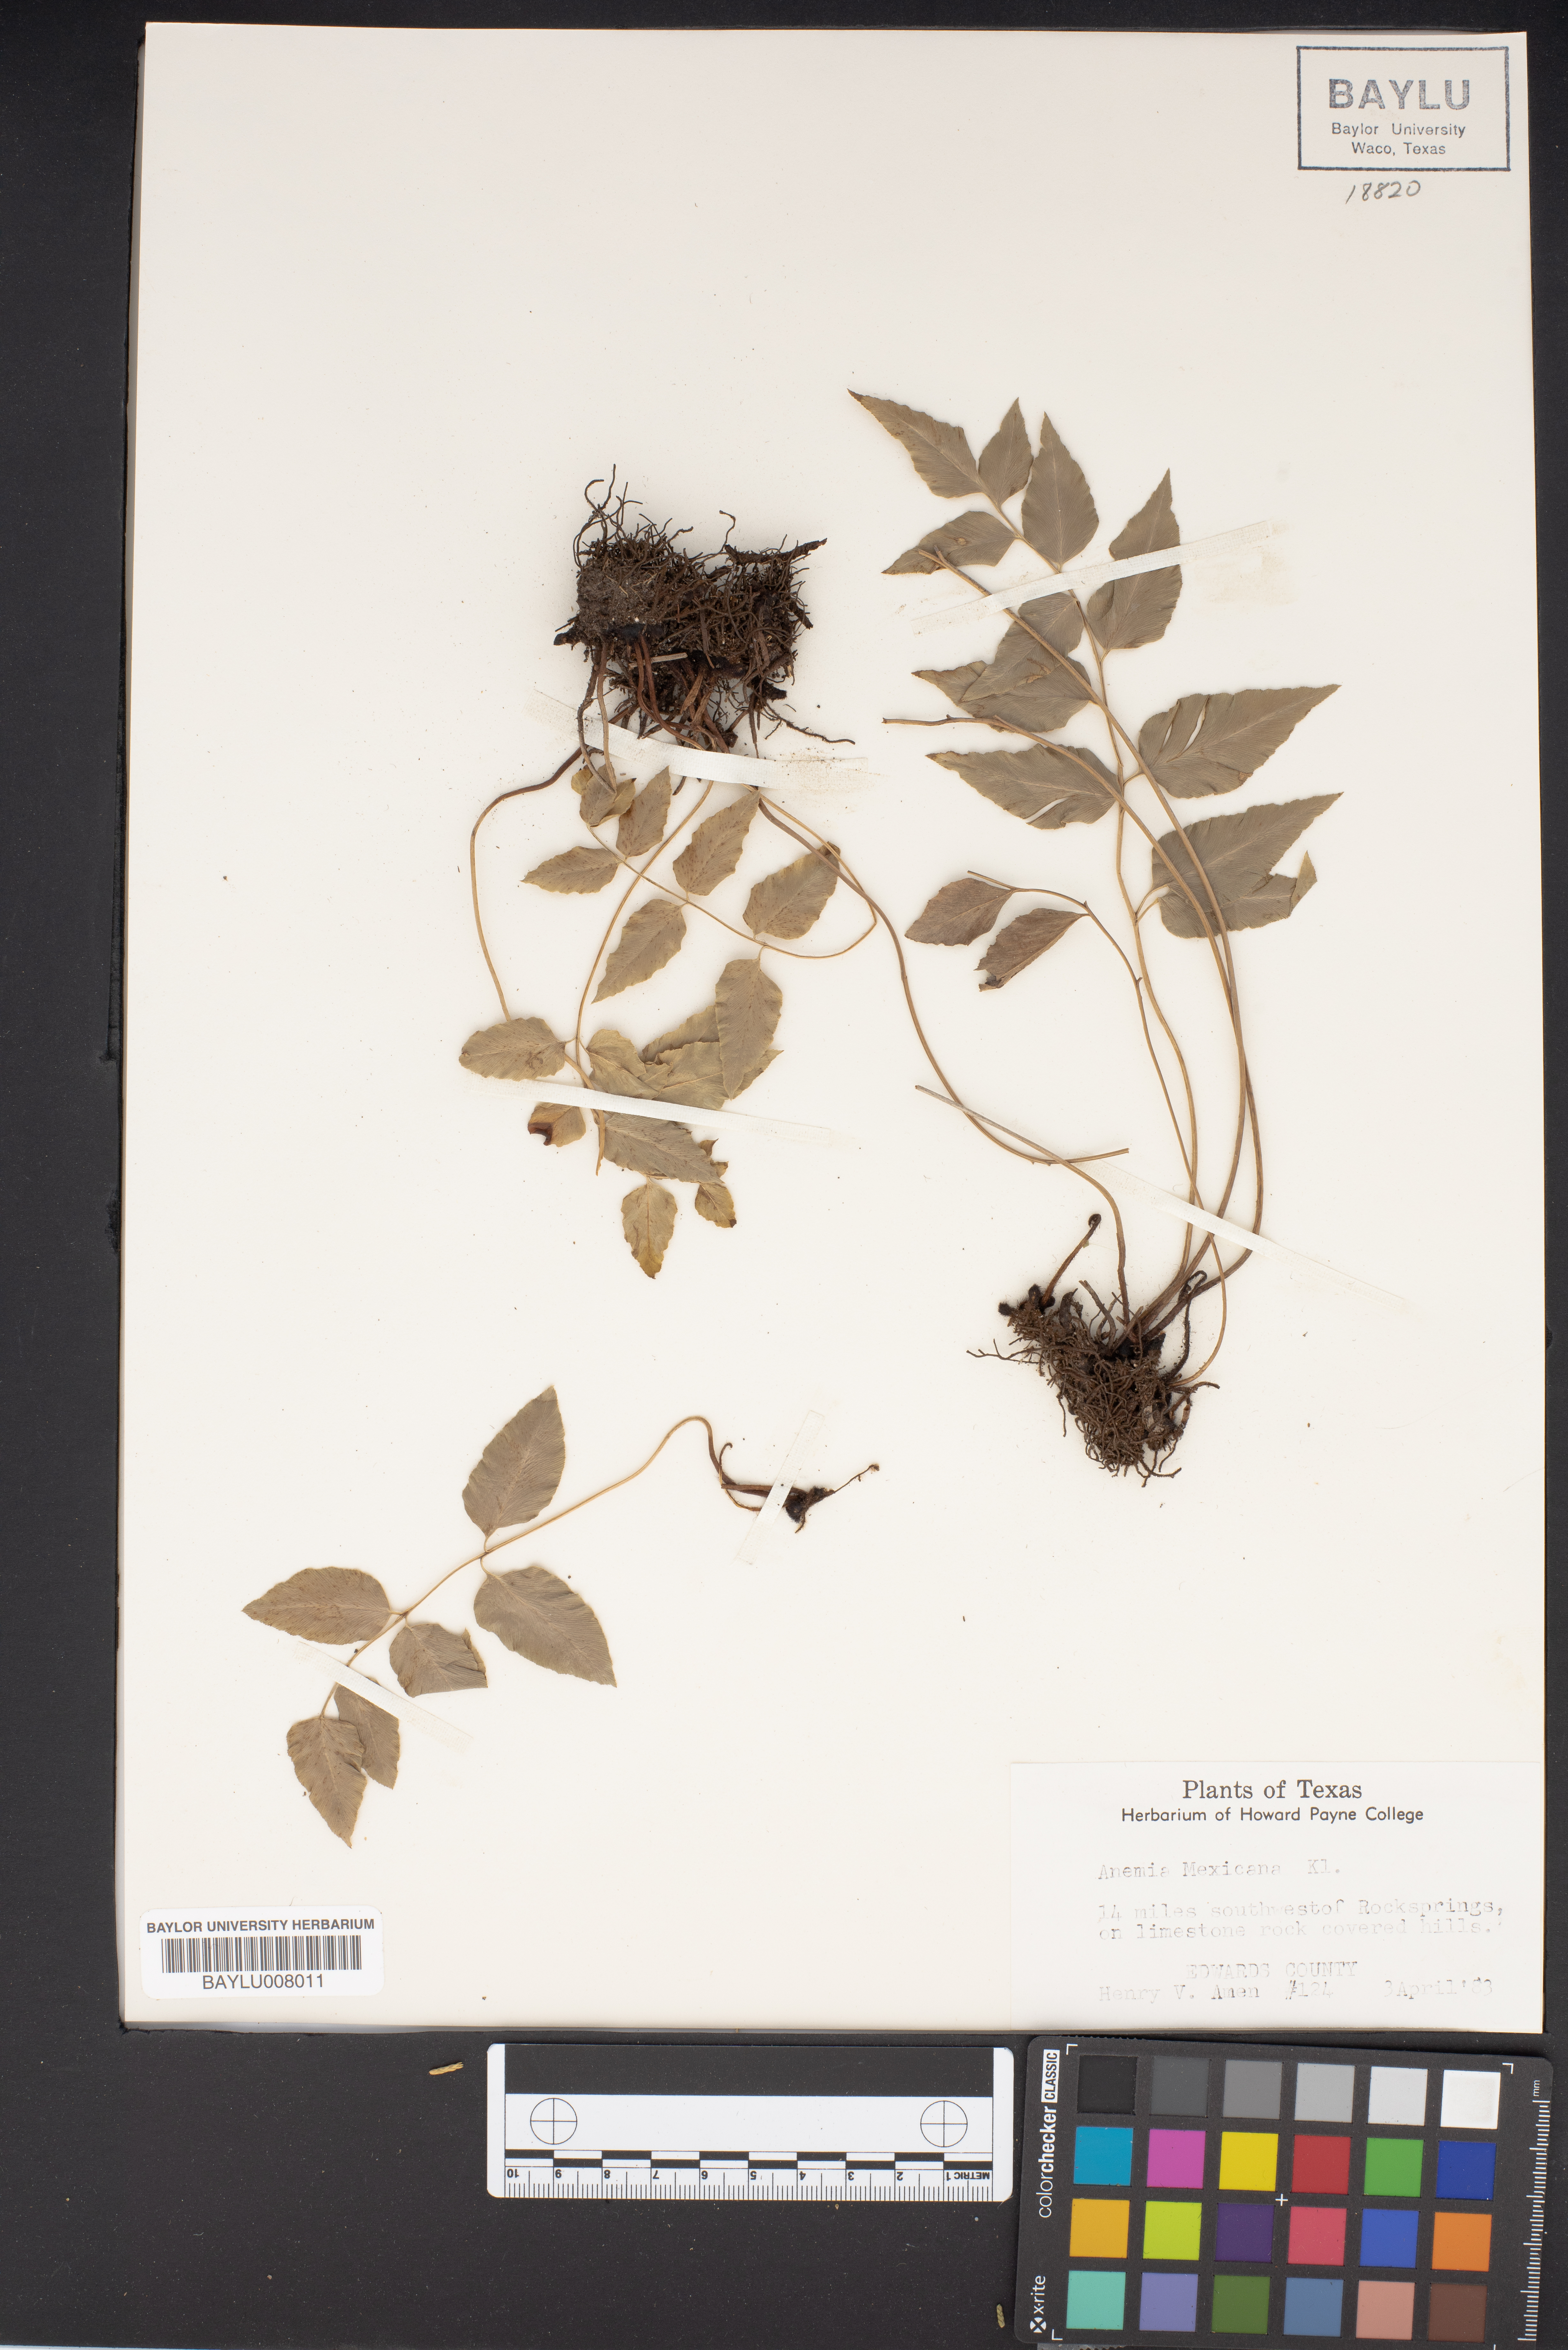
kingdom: Plantae
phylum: Tracheophyta
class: Polypodiopsida
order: Schizaeales
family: Anemiaceae
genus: Anemia
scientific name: Anemia mexicana
